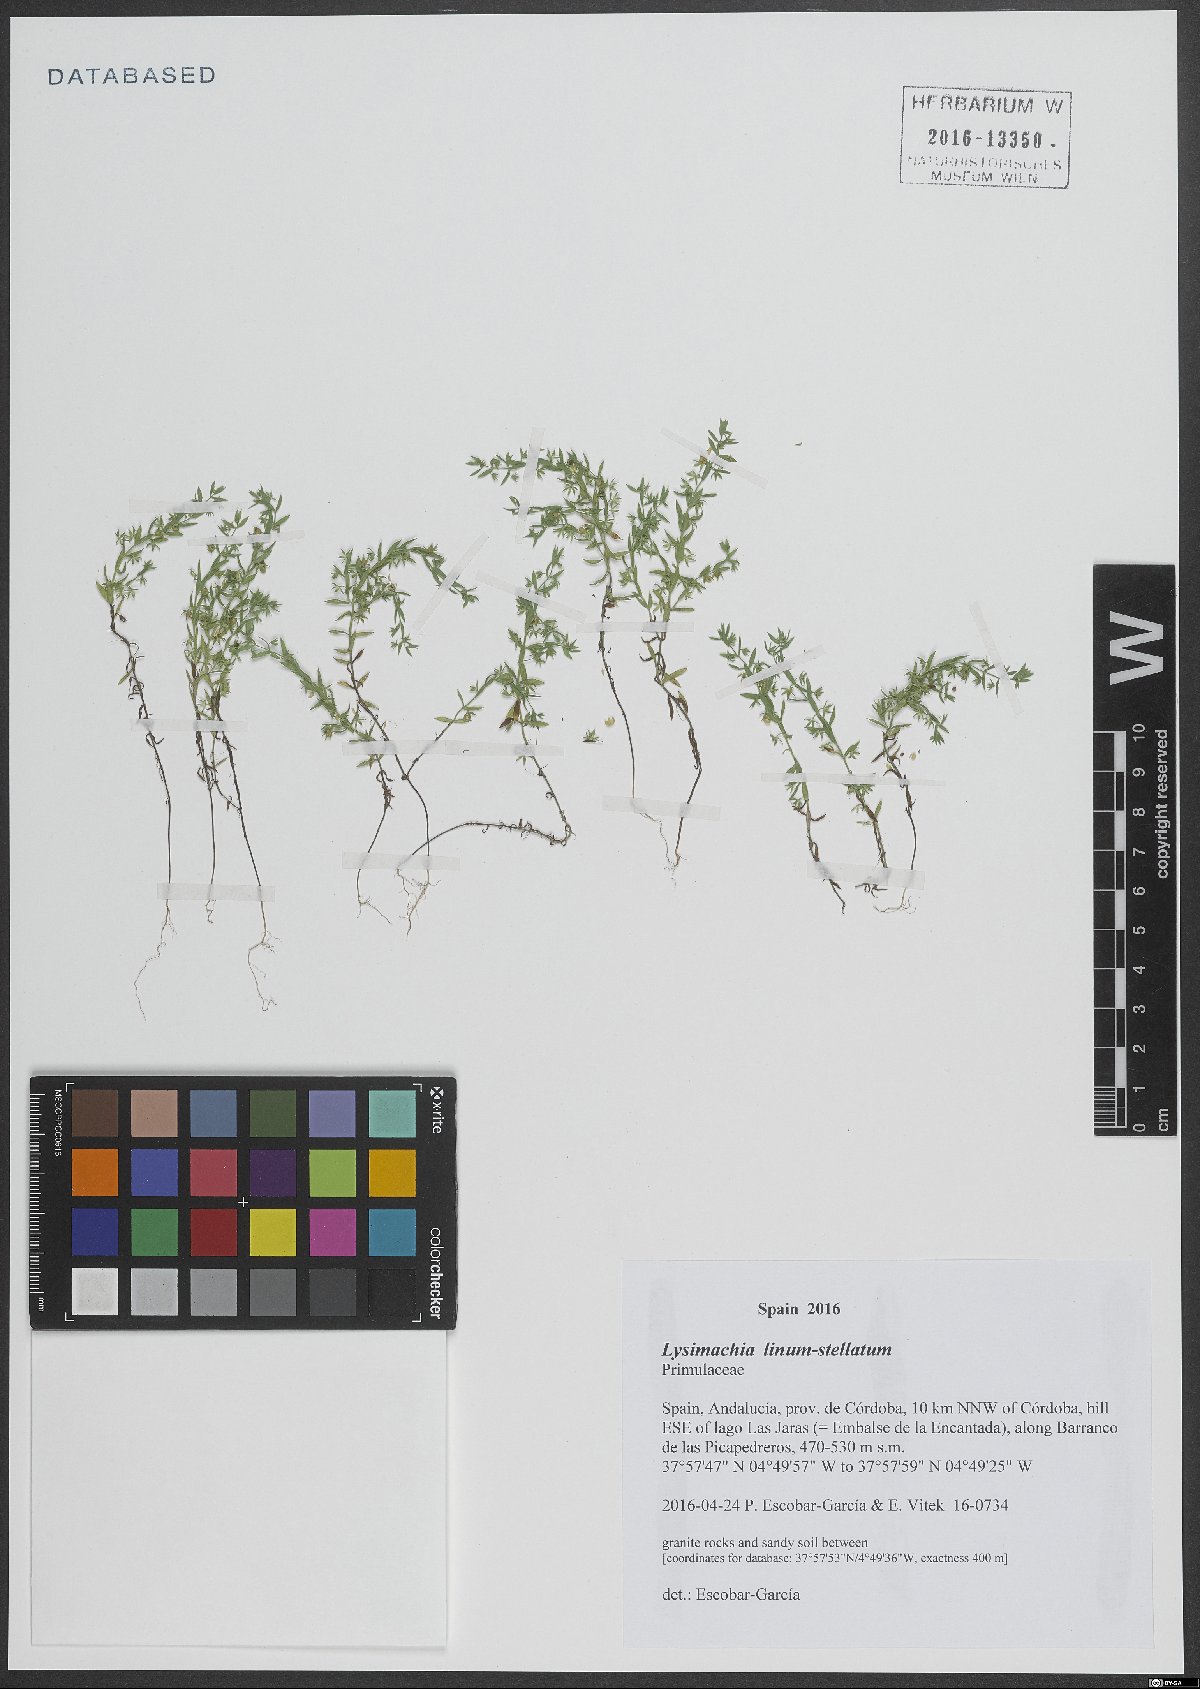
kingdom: Plantae
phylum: Tracheophyta
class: Magnoliopsida
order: Ericales
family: Primulaceae
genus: Lysimachia
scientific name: Lysimachia linum-stellatum
